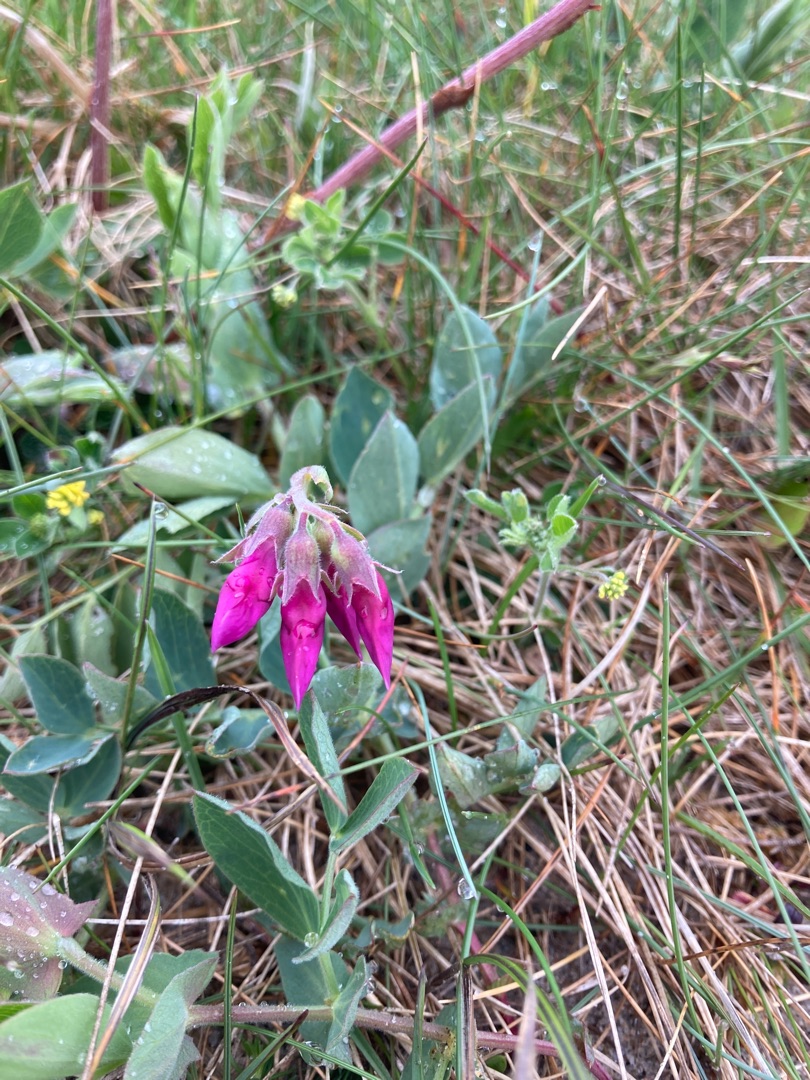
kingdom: Plantae
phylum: Tracheophyta
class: Magnoliopsida
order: Fabales
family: Fabaceae
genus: Lathyrus
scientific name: Lathyrus japonicus
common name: Strand-fladbælg
